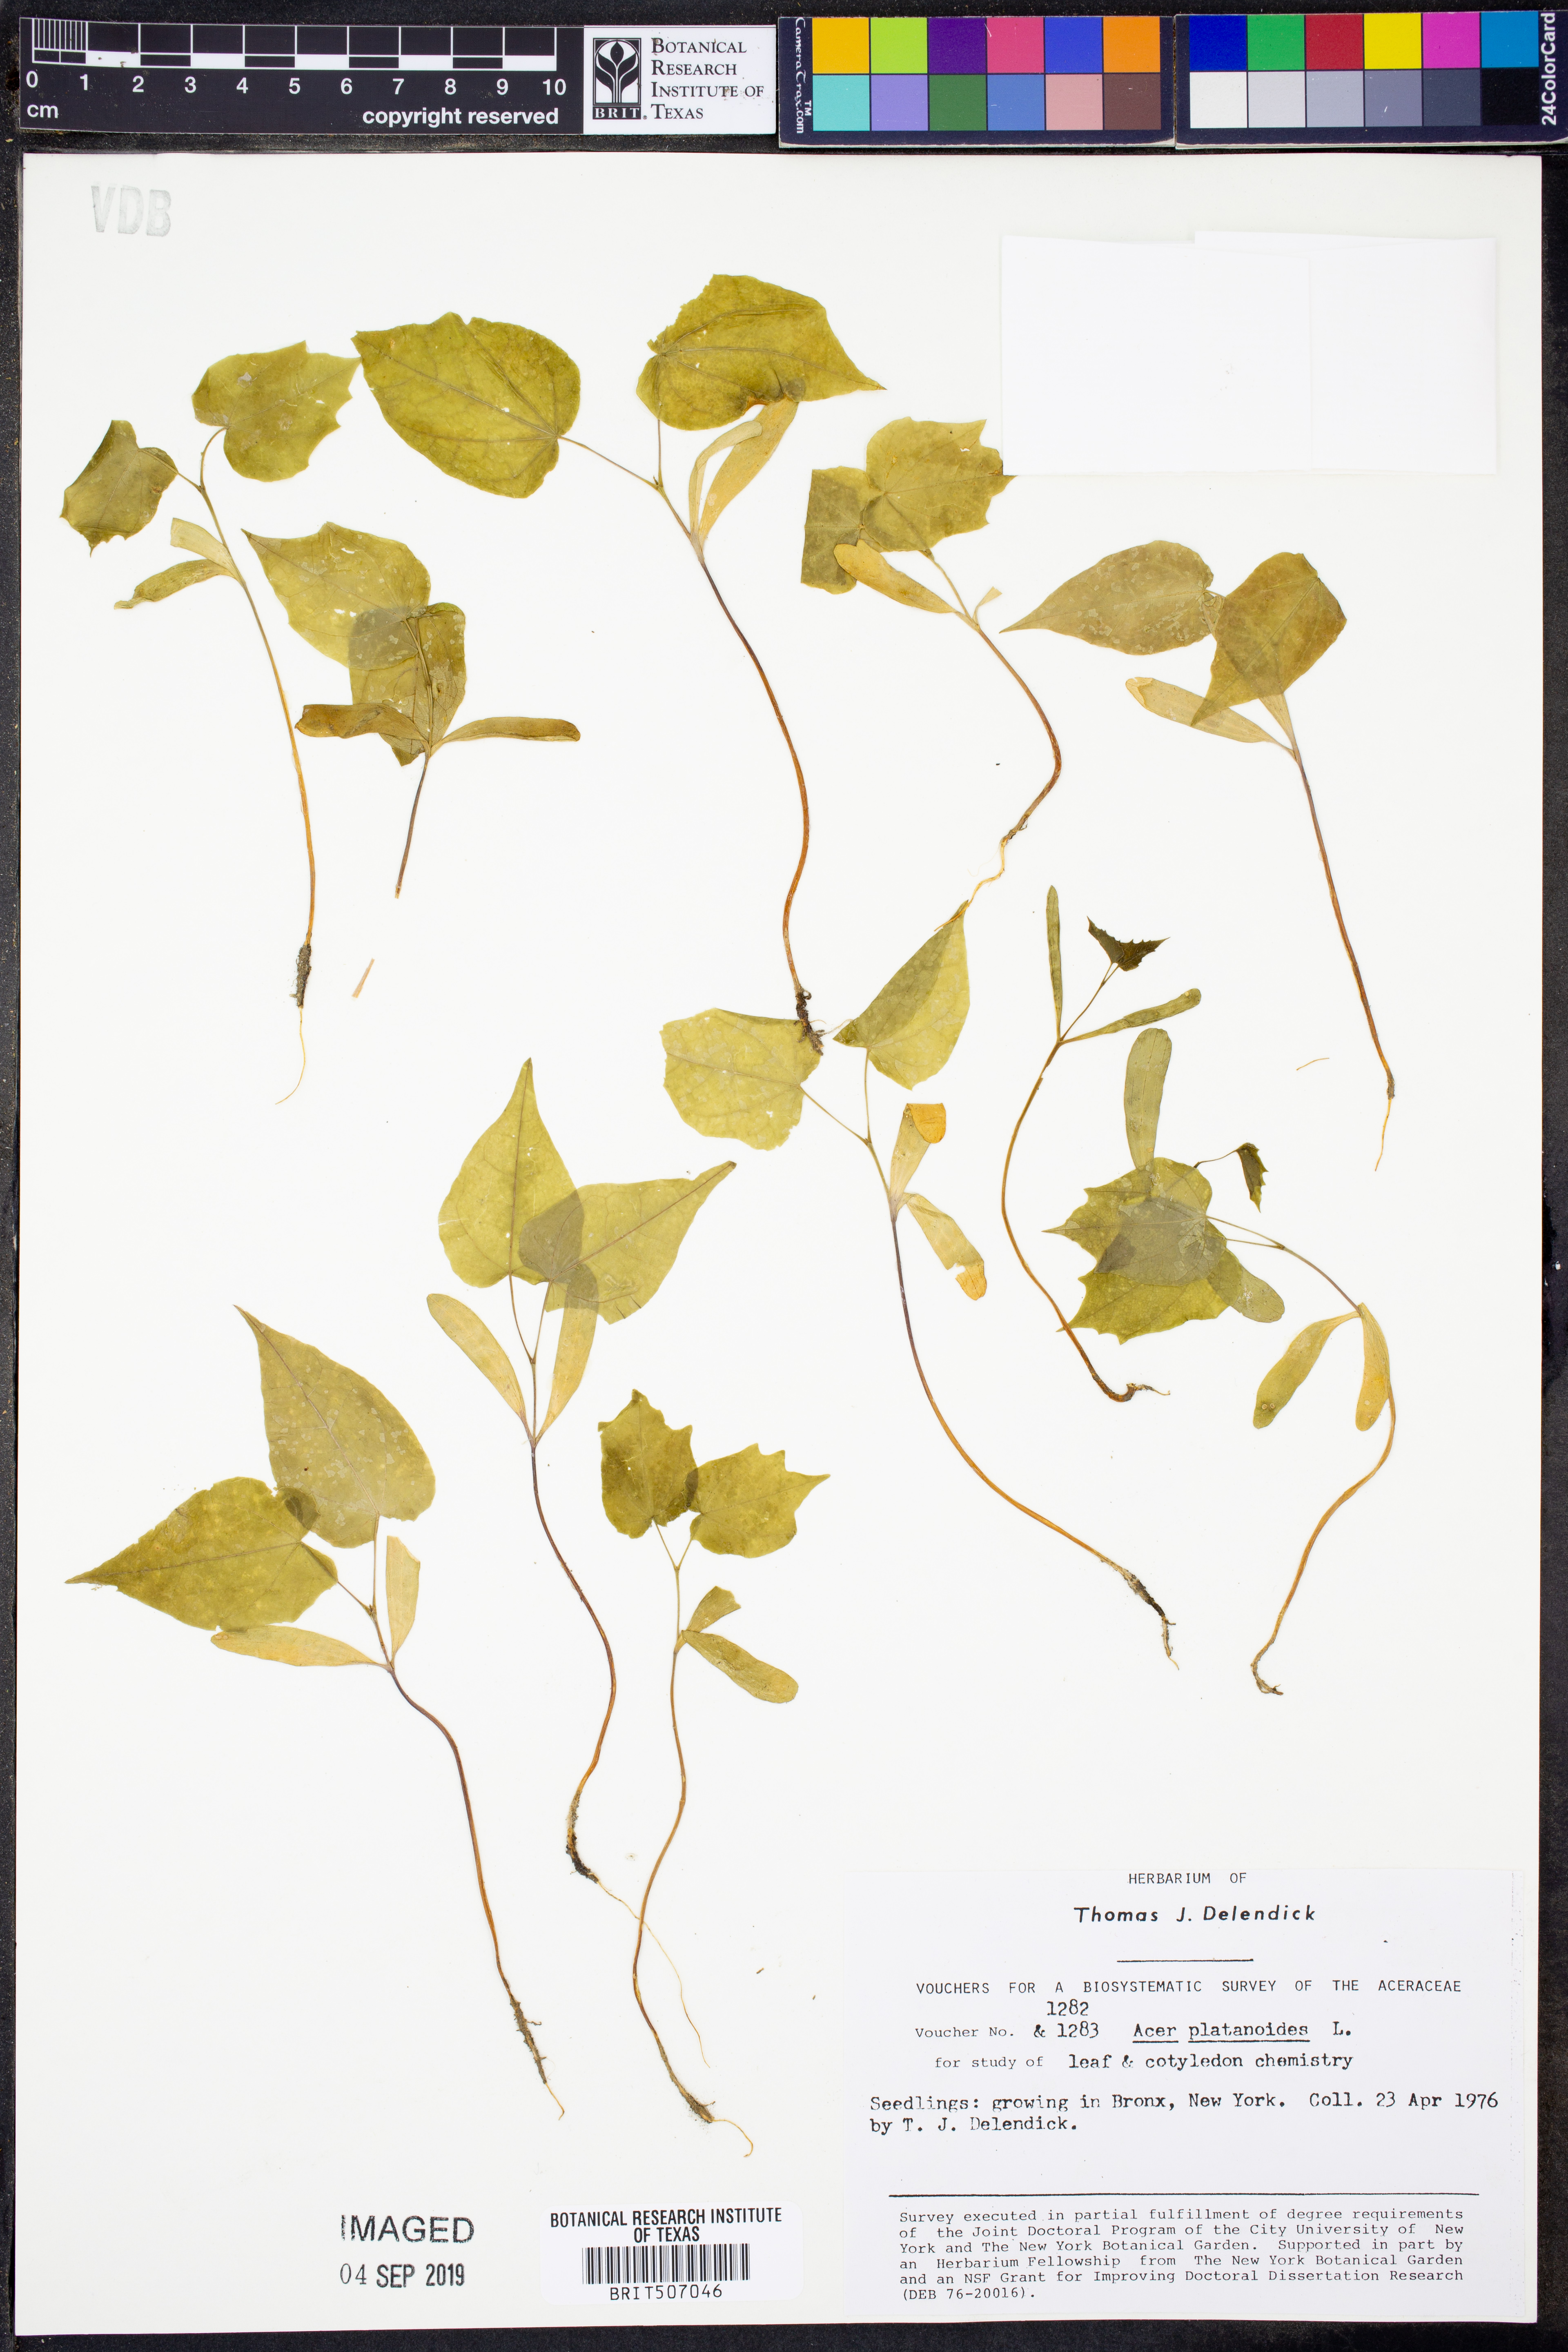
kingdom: Plantae
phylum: Tracheophyta
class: Magnoliopsida
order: Sapindales
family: Sapindaceae
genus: Acer
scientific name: Acer platanoides
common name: Norway maple
